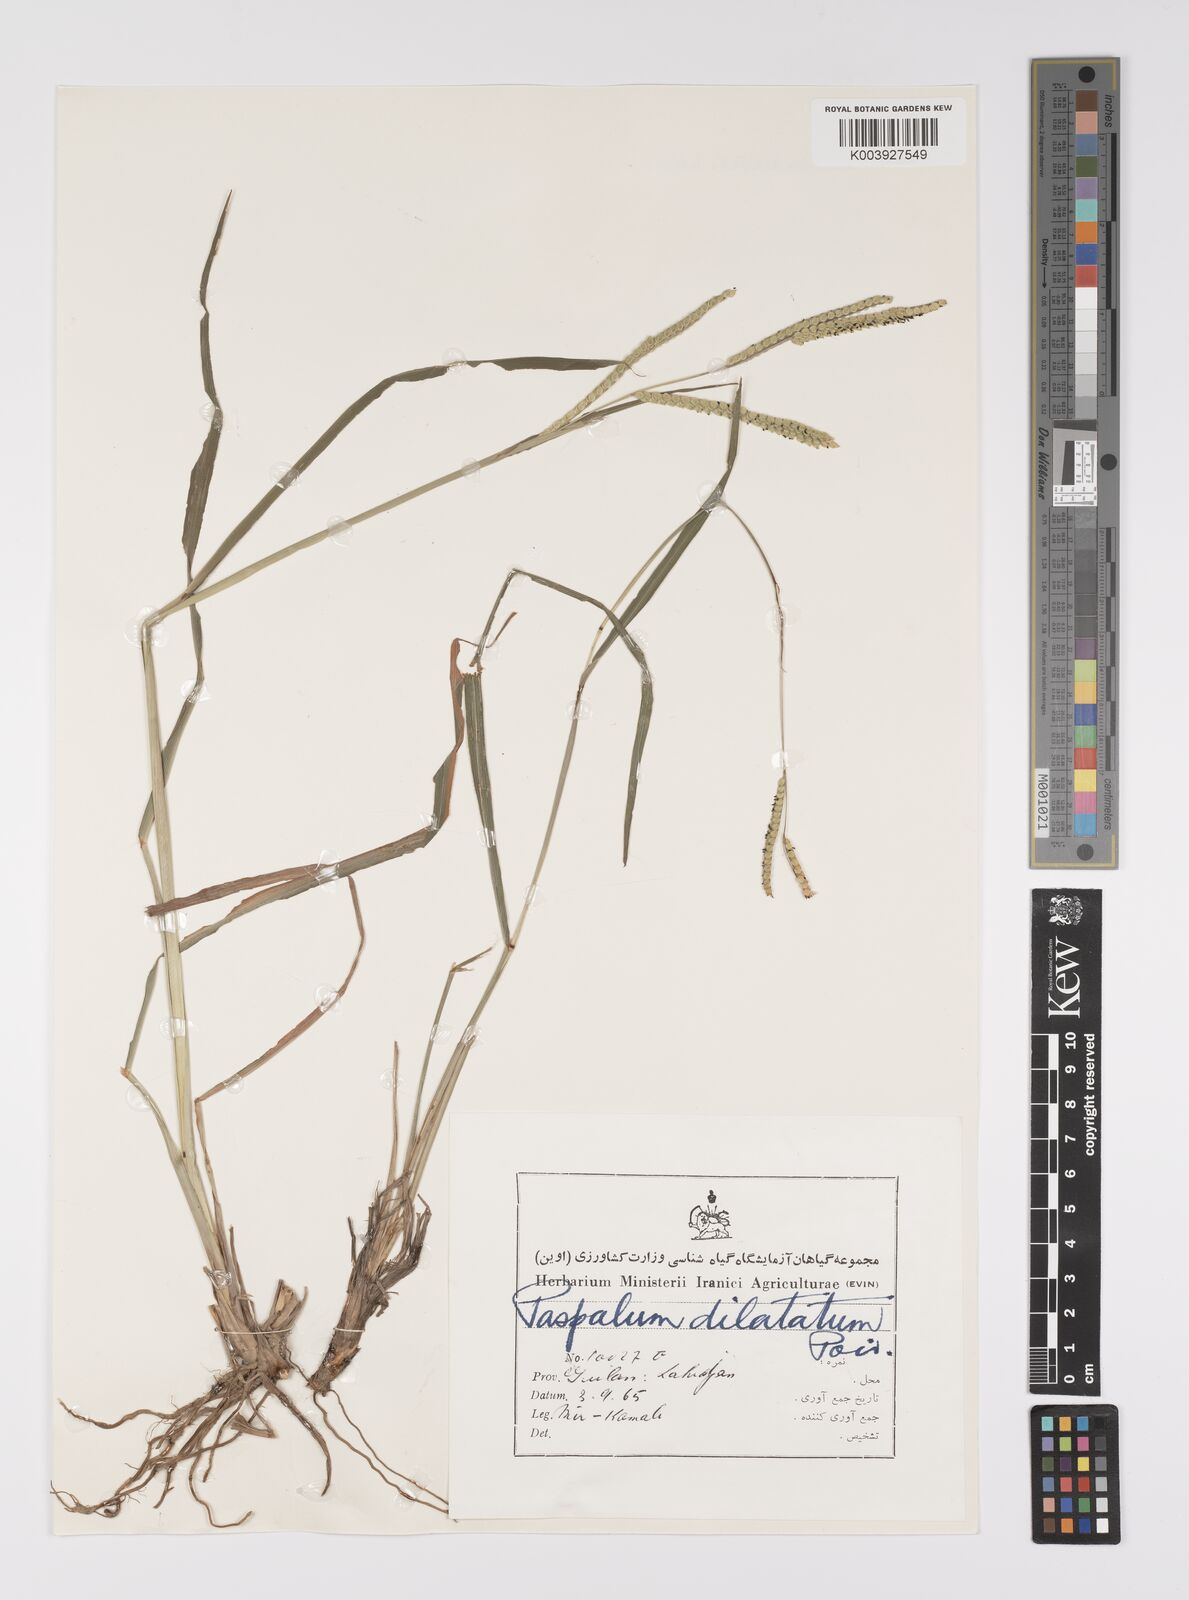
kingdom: Plantae
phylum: Tracheophyta
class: Liliopsida
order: Poales
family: Poaceae
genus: Paspalum
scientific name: Paspalum dilatatum
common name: Dallisgrass
